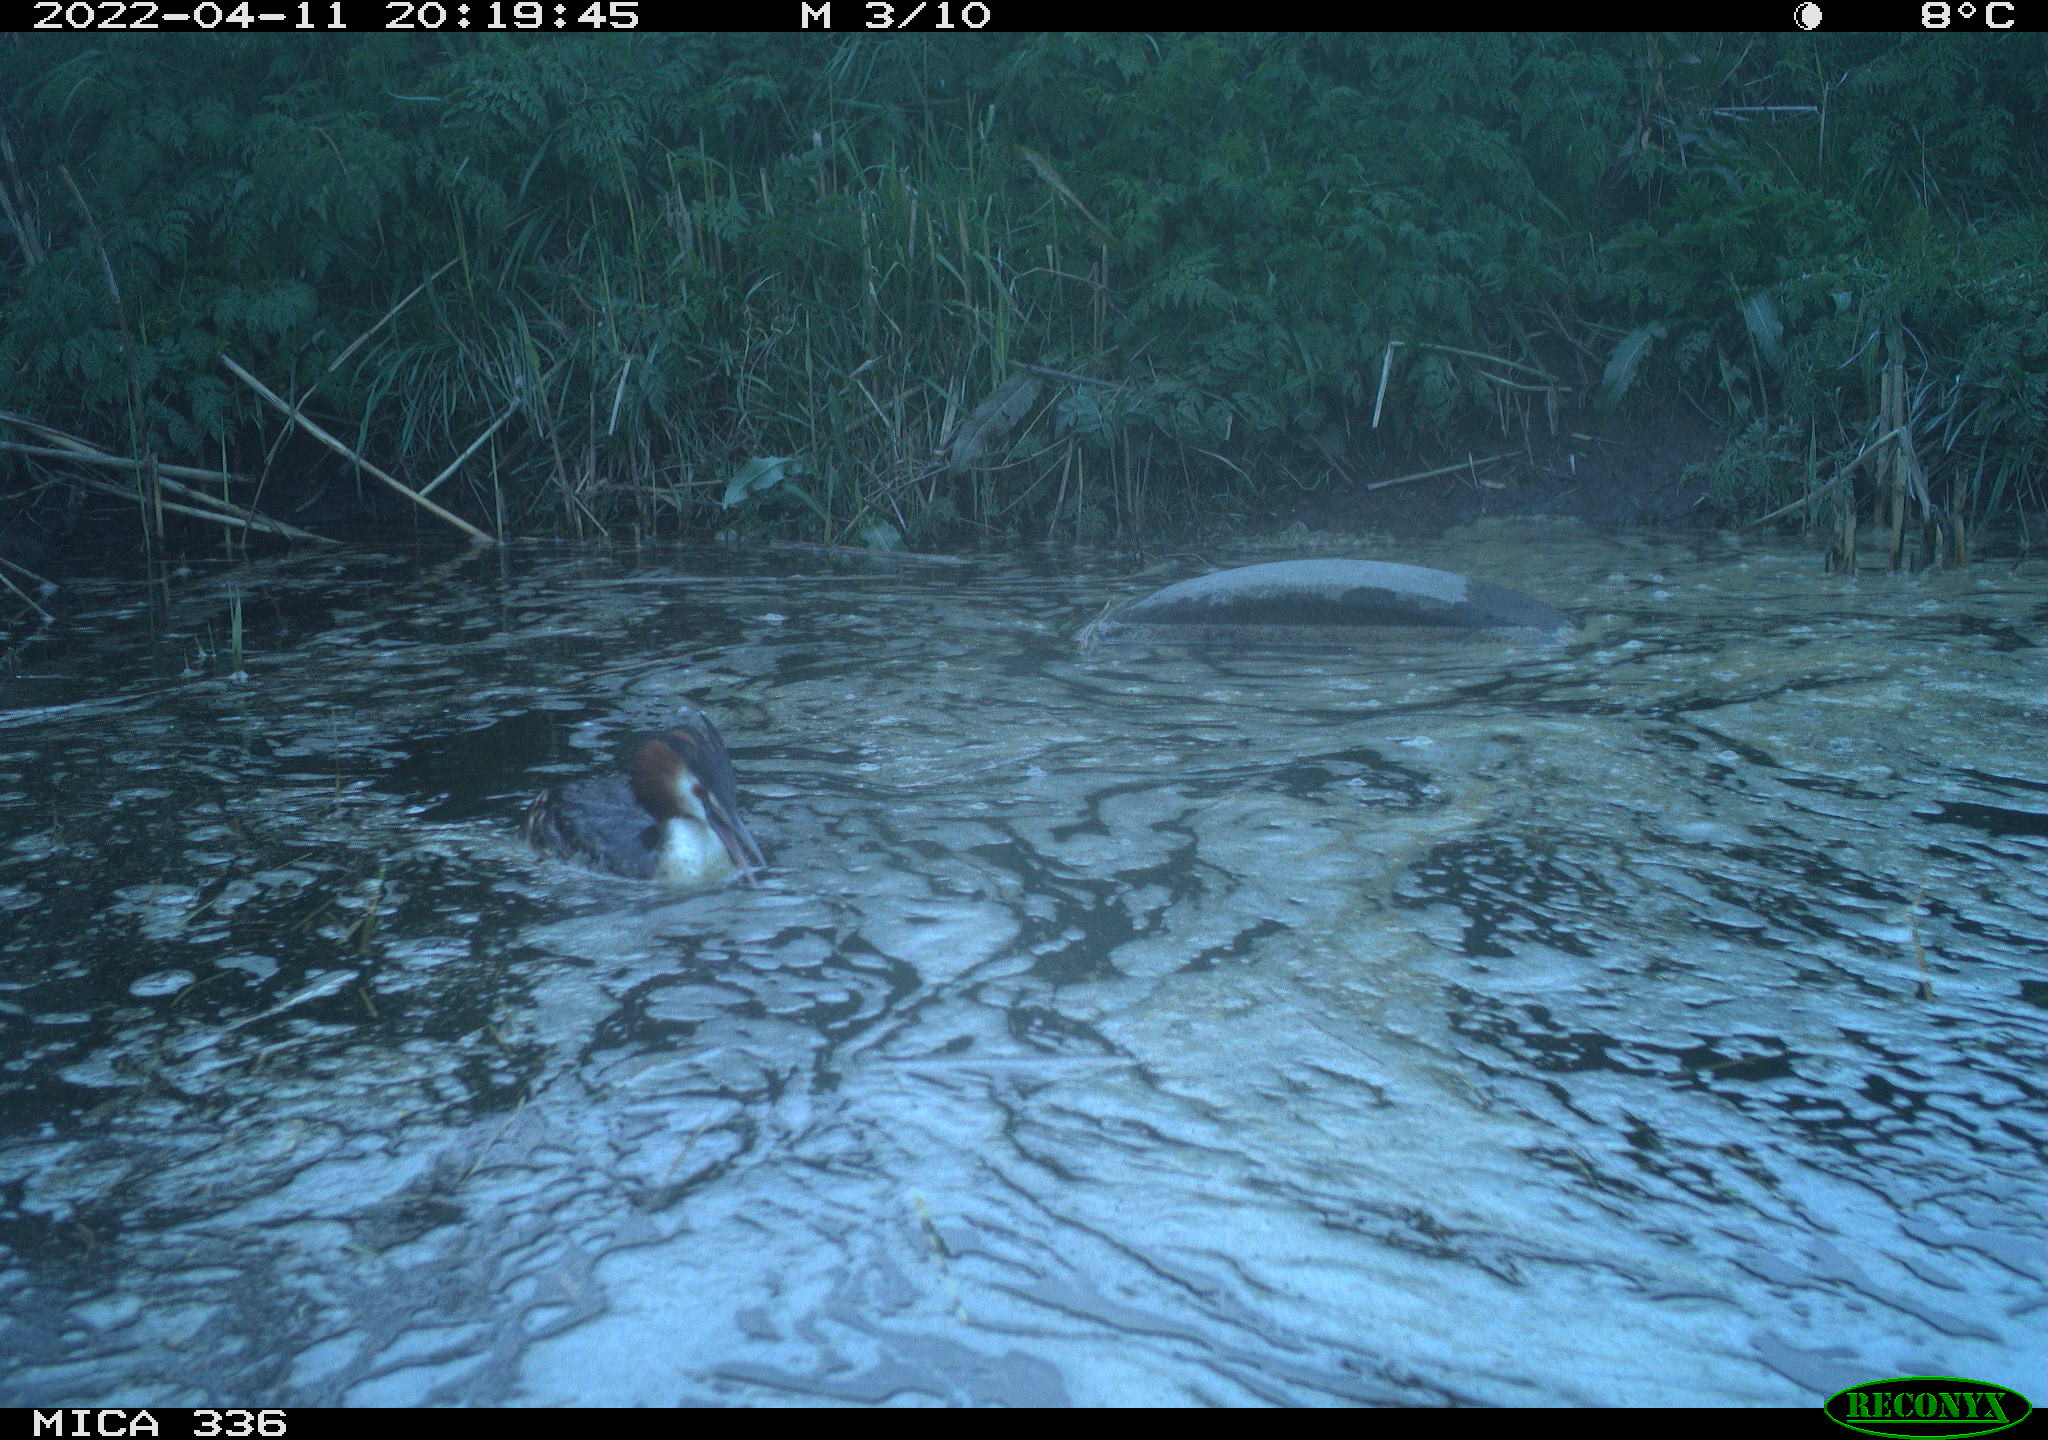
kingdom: Animalia
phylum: Chordata
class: Aves
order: Podicipediformes
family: Podicipedidae
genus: Podiceps
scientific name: Podiceps cristatus
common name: Great crested grebe
